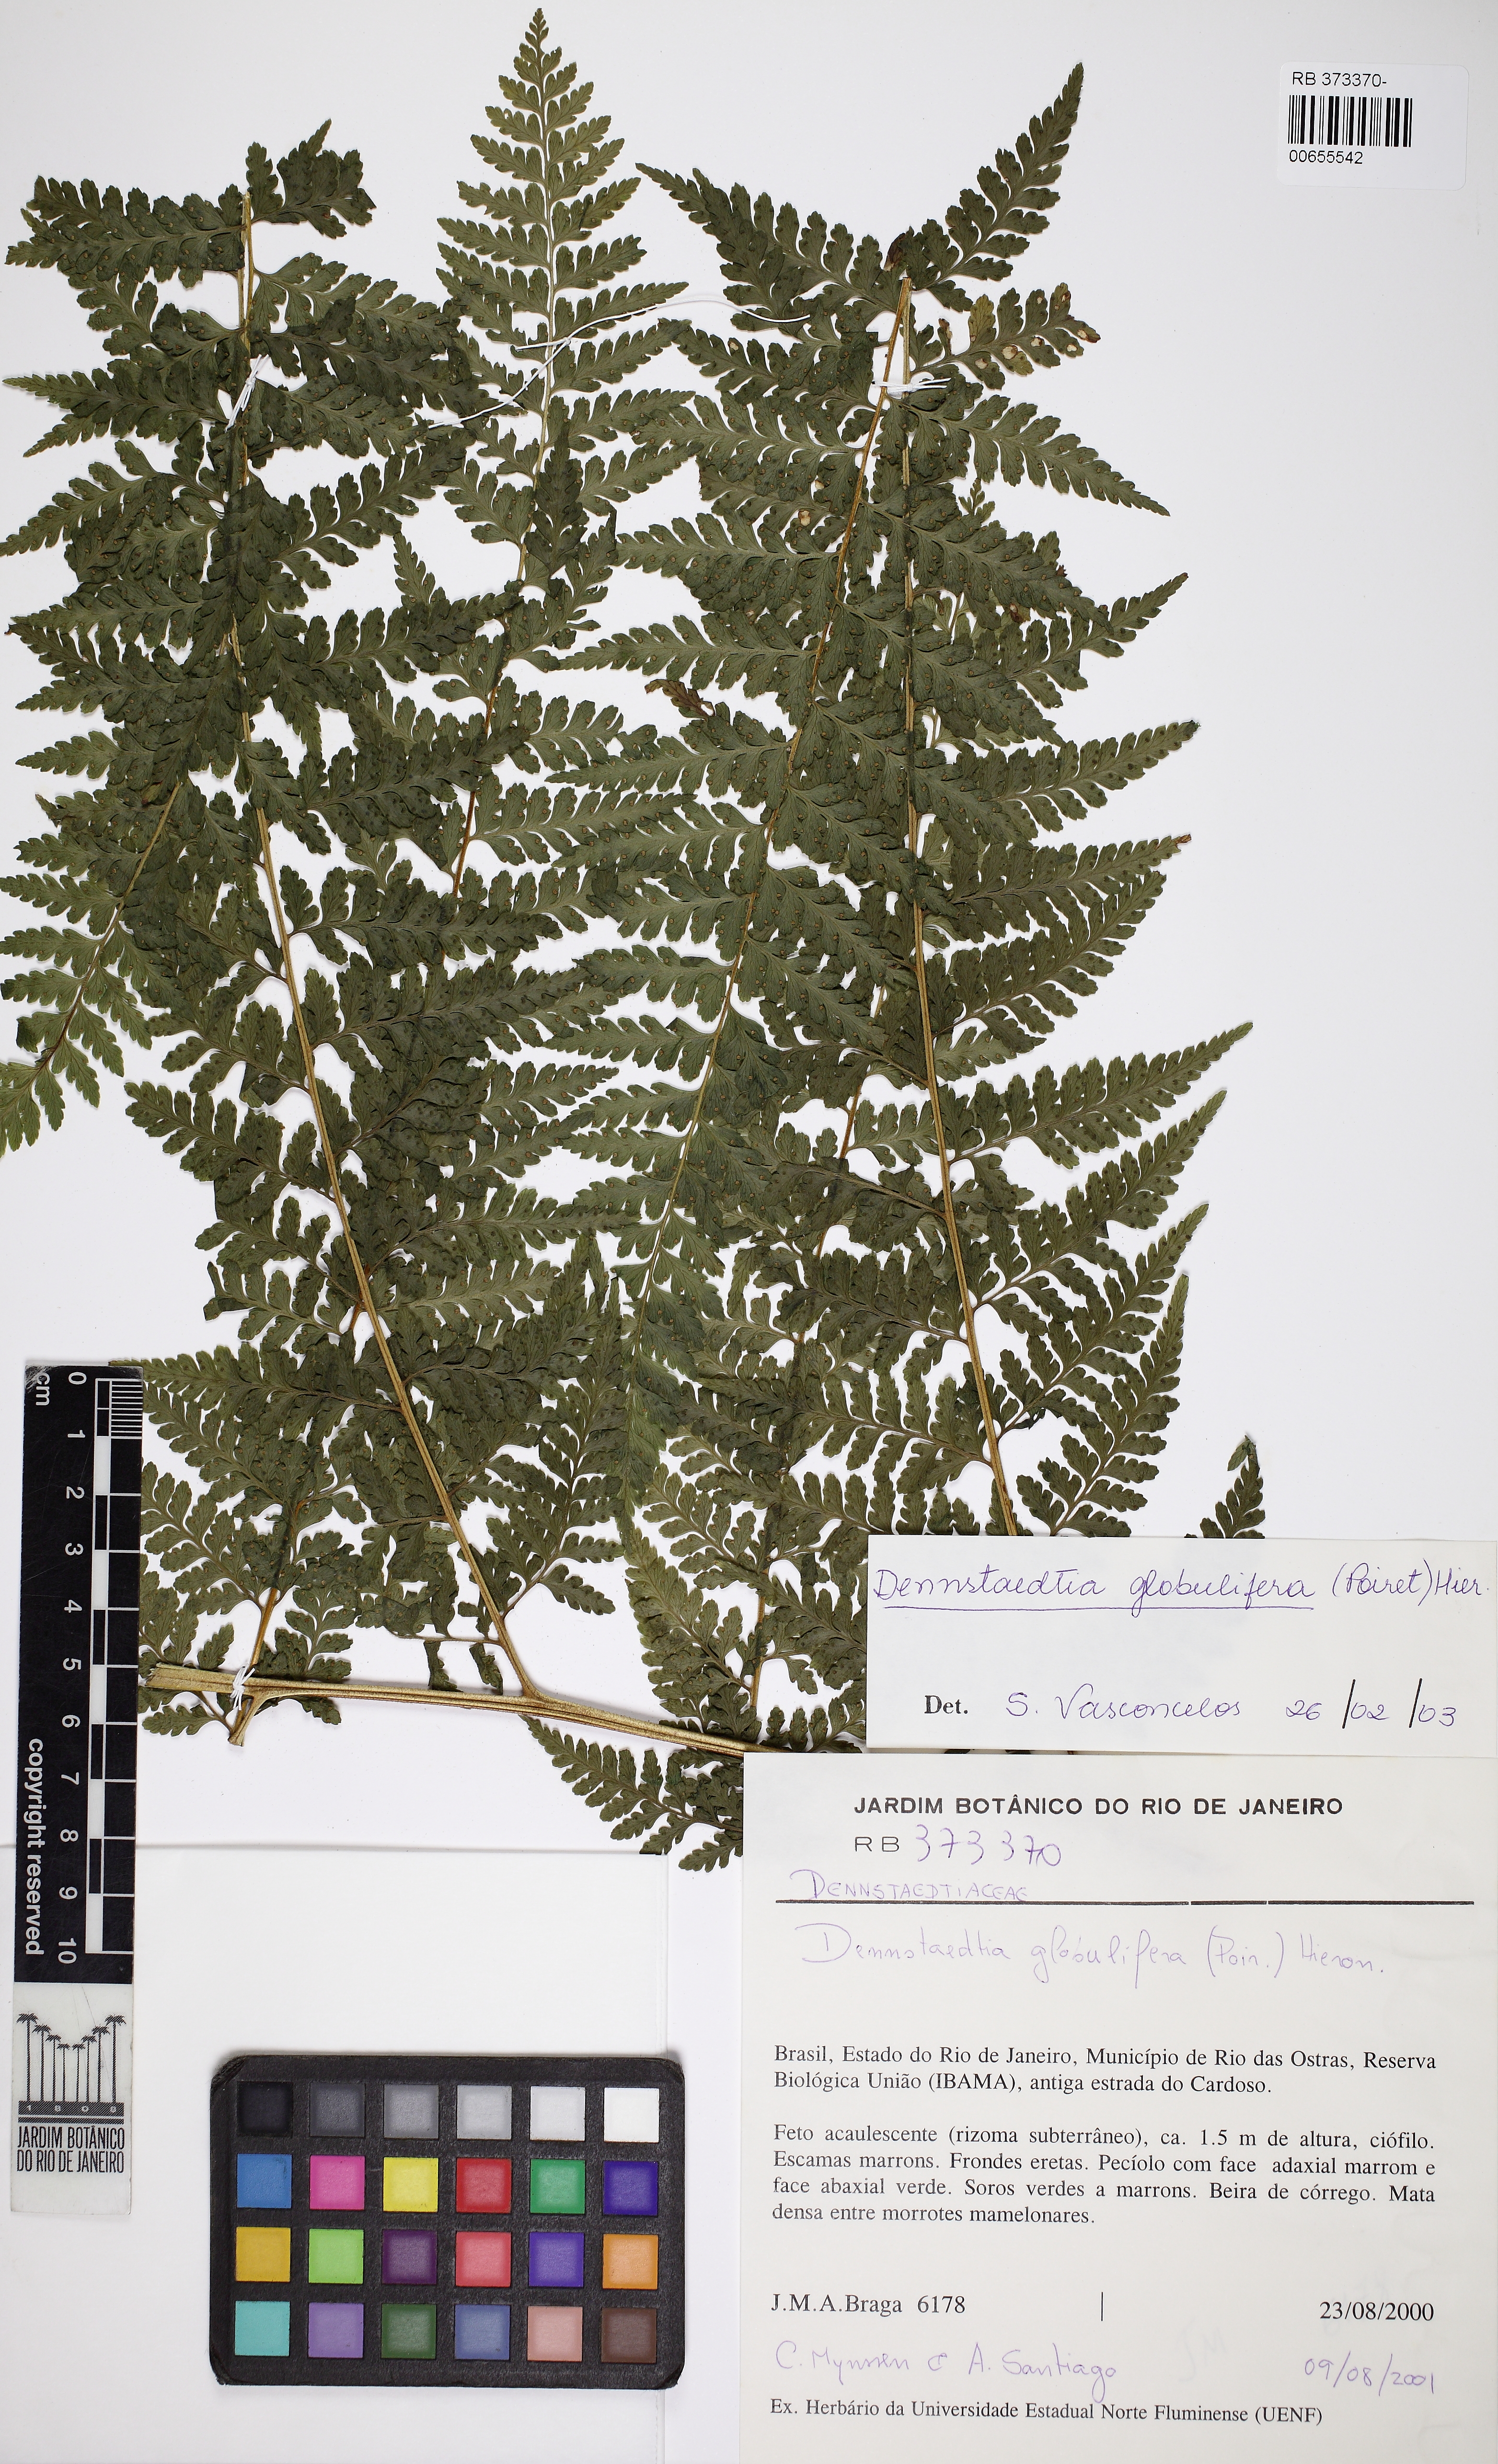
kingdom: Plantae
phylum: Tracheophyta
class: Polypodiopsida
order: Polypodiales
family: Dennstaedtiaceae
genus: Mucura
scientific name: Mucura globulifera
